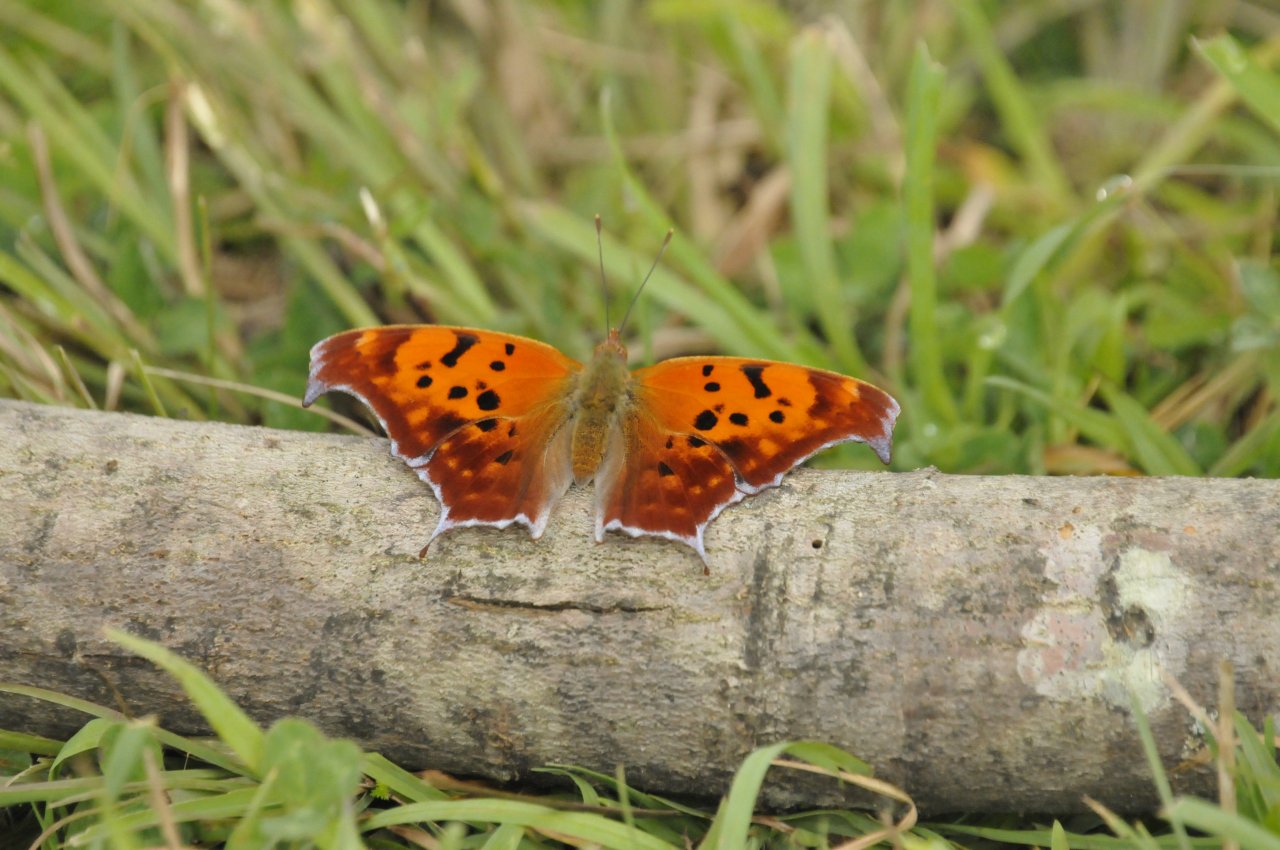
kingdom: Animalia
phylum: Arthropoda
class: Insecta
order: Lepidoptera
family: Nymphalidae
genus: Polygonia
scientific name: Polygonia interrogationis
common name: Question Mark
